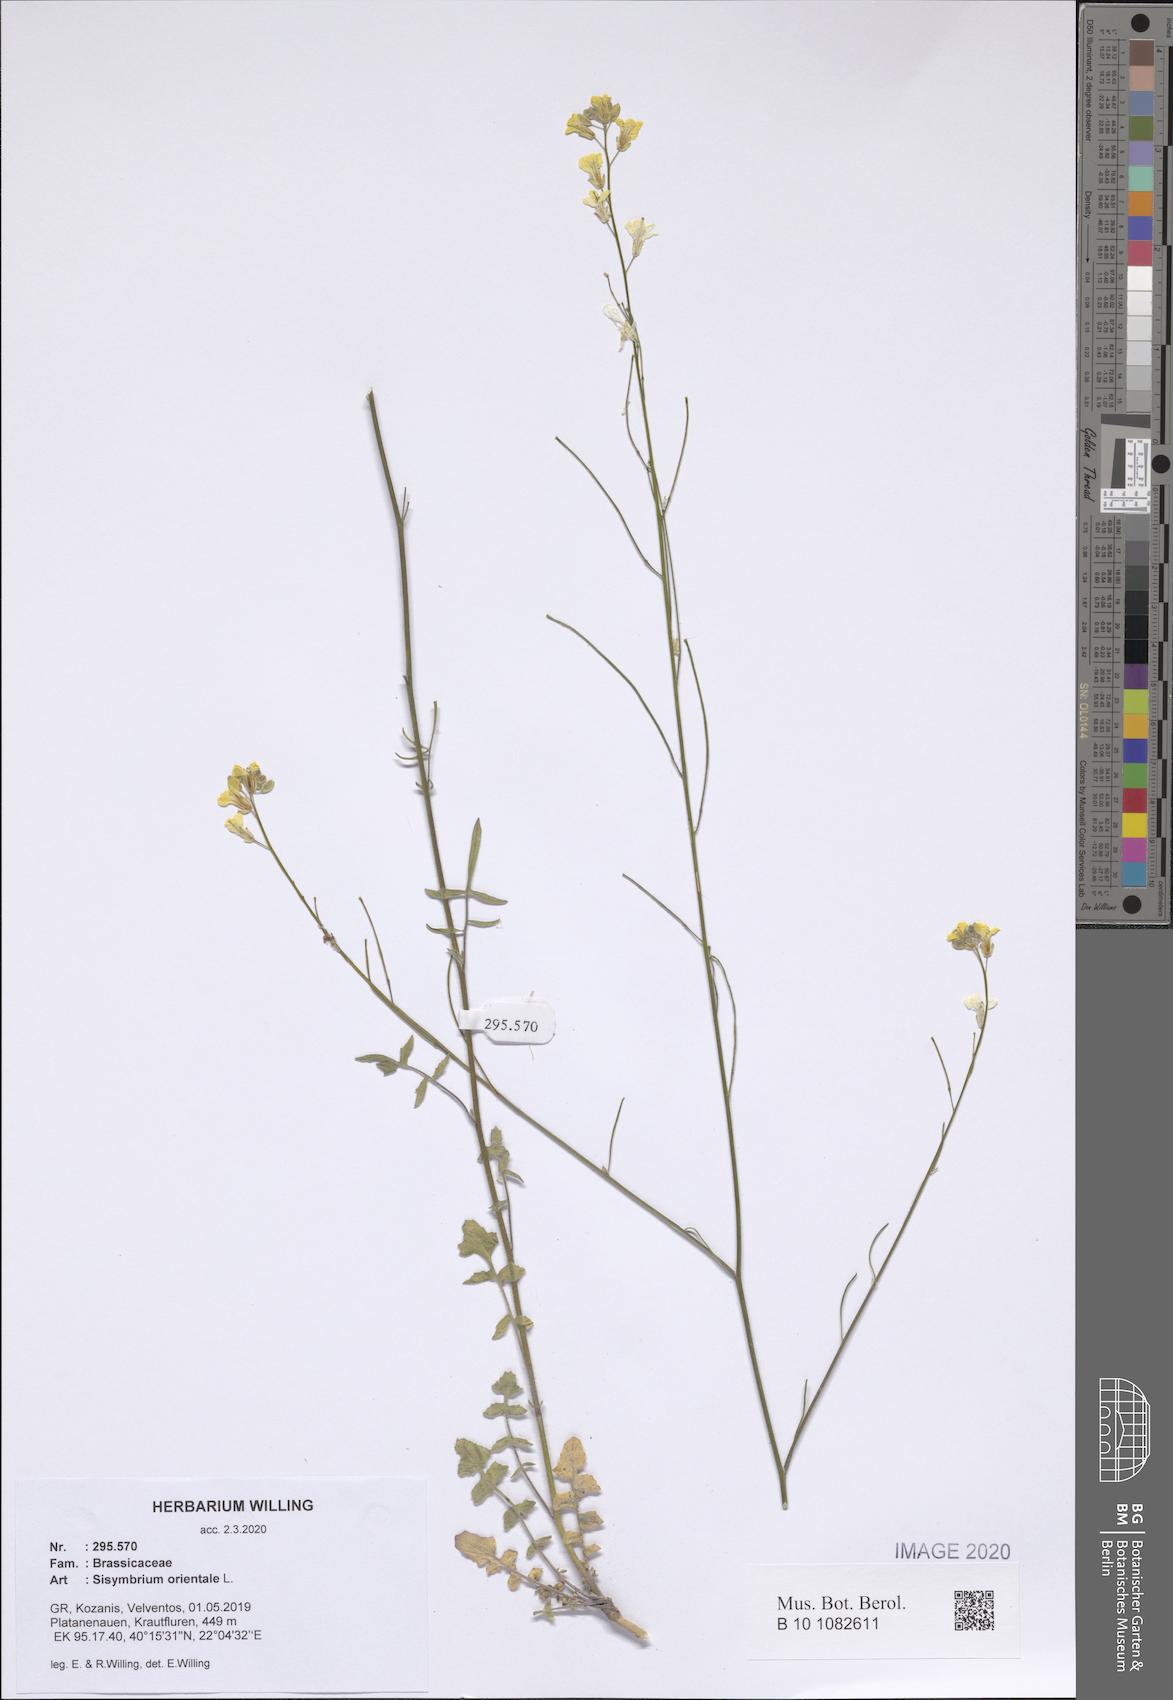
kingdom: Plantae
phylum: Tracheophyta
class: Magnoliopsida
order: Brassicales
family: Brassicaceae
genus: Sisymbrium
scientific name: Sisymbrium orientale
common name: Eastern rocket
